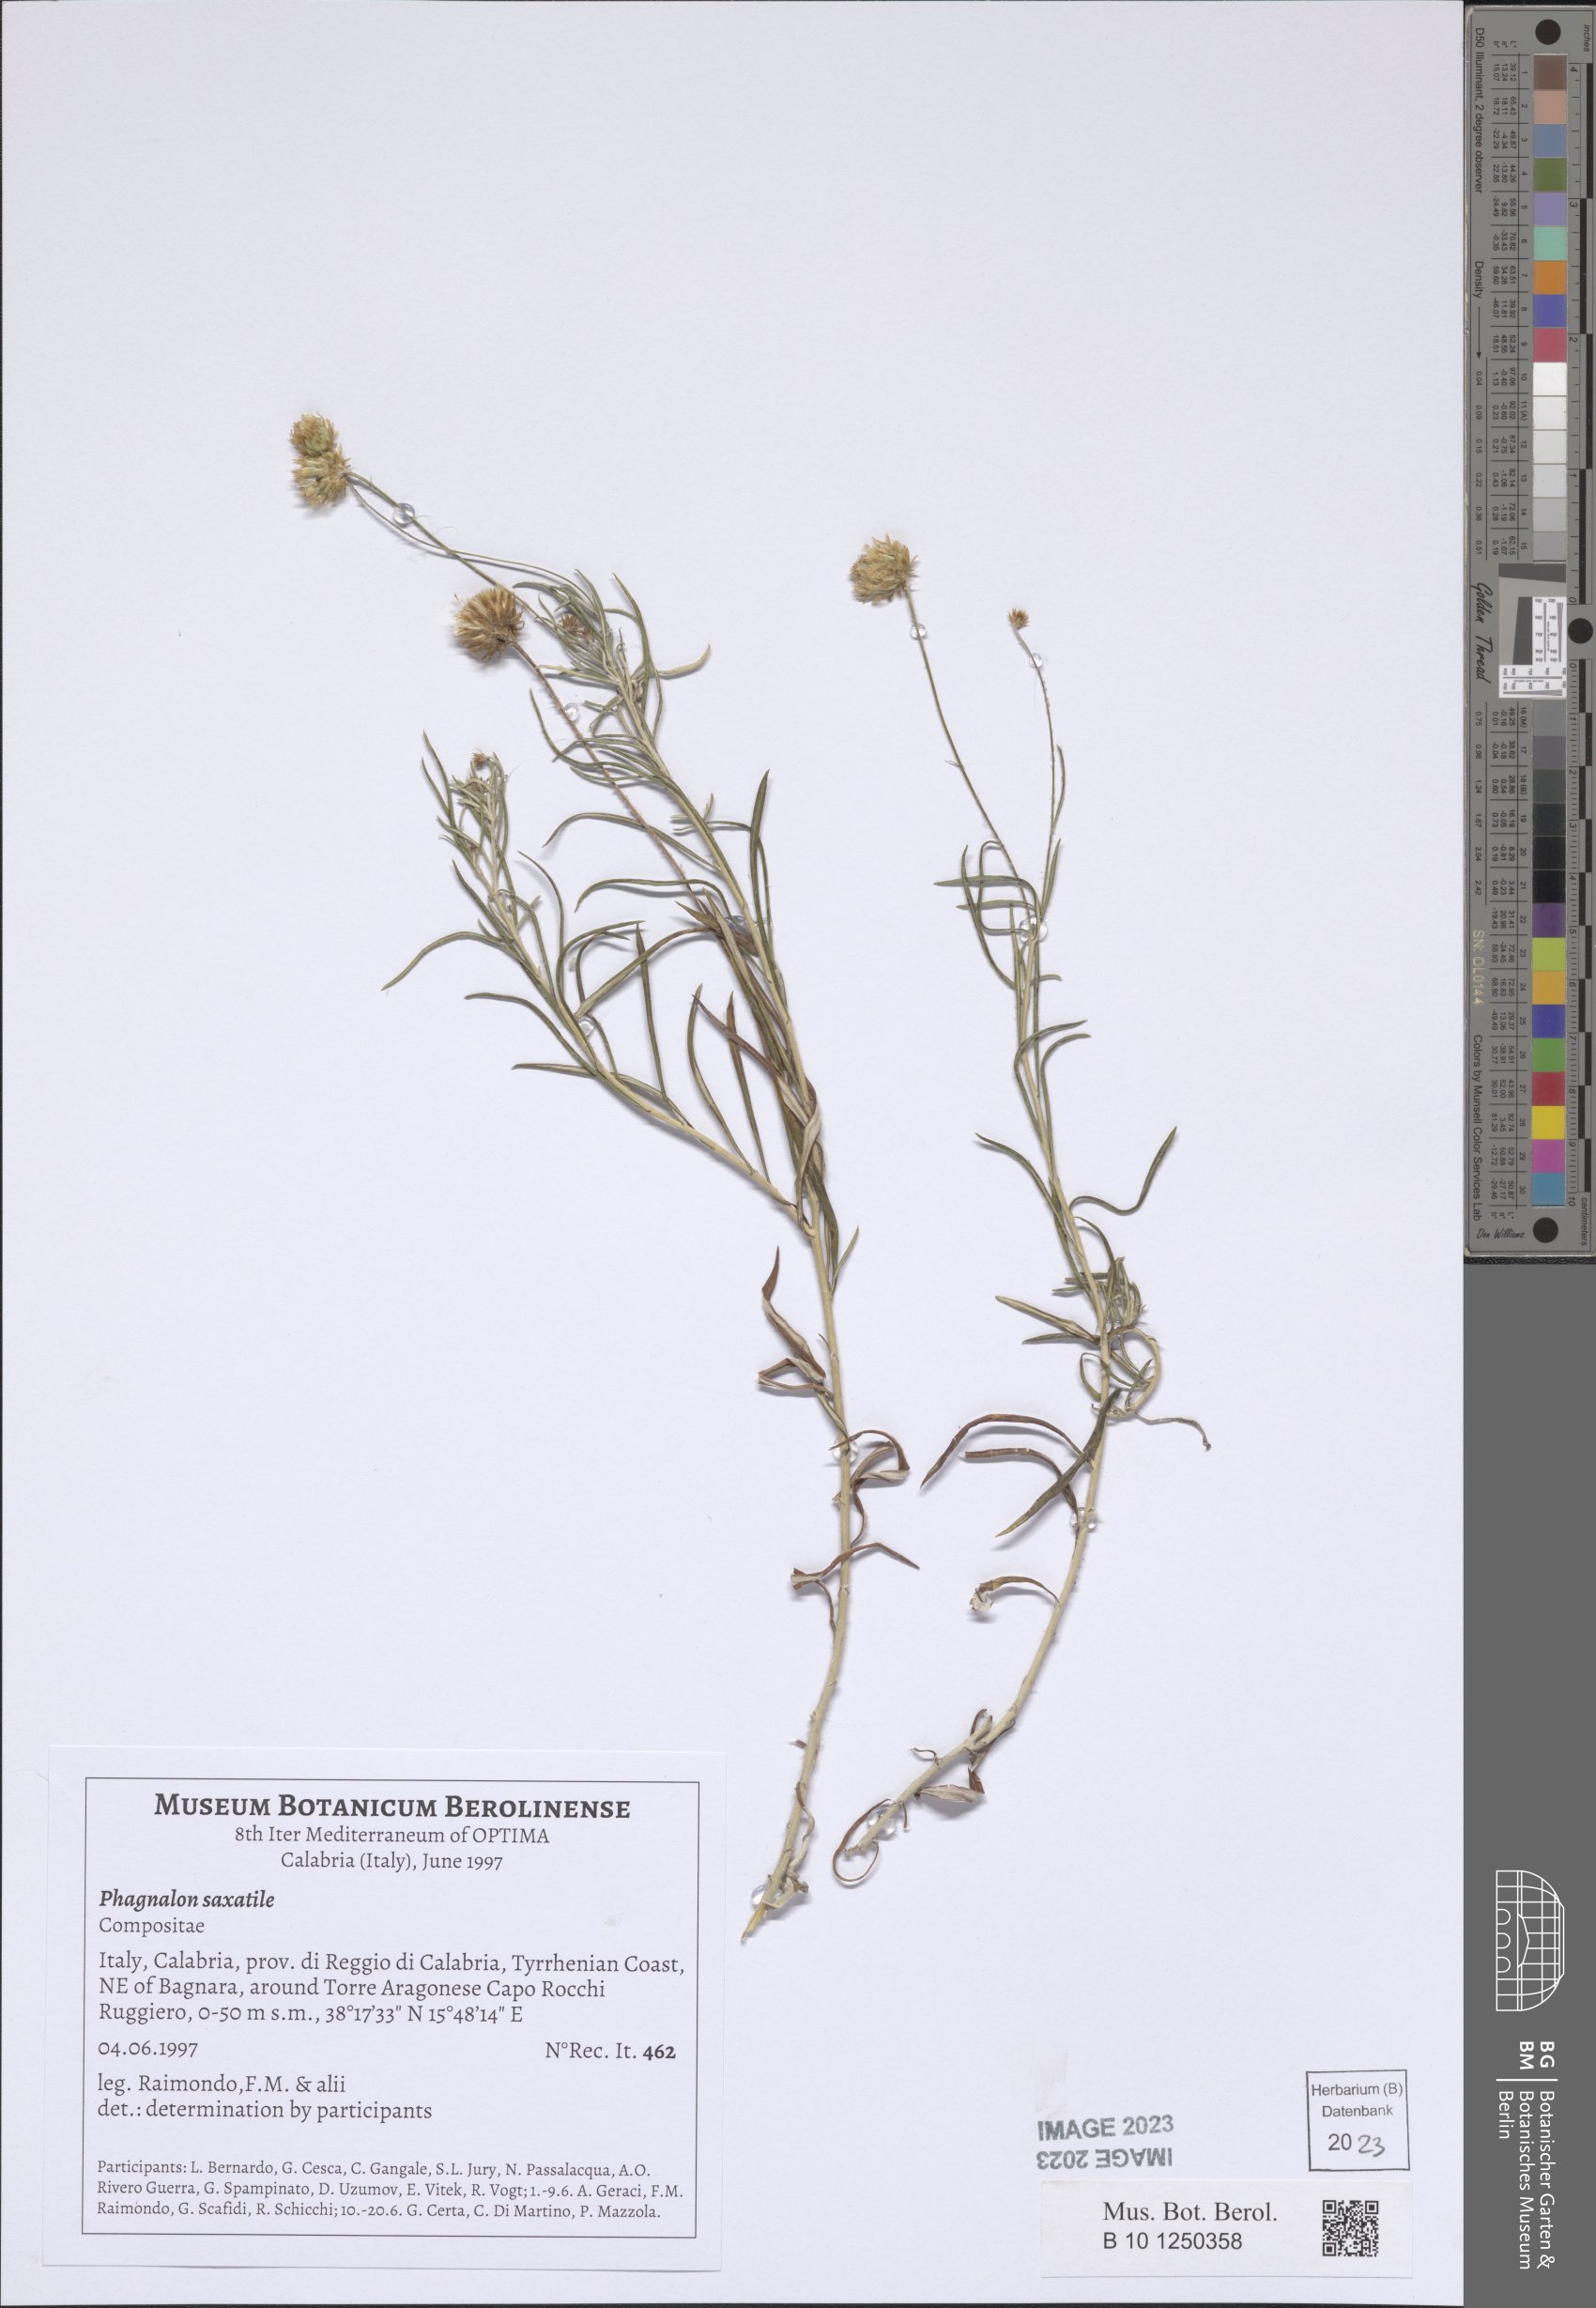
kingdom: Plantae
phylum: Tracheophyta
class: Magnoliopsida
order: Asterales
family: Asteraceae
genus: Phagnalon
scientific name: Phagnalon saxatile
